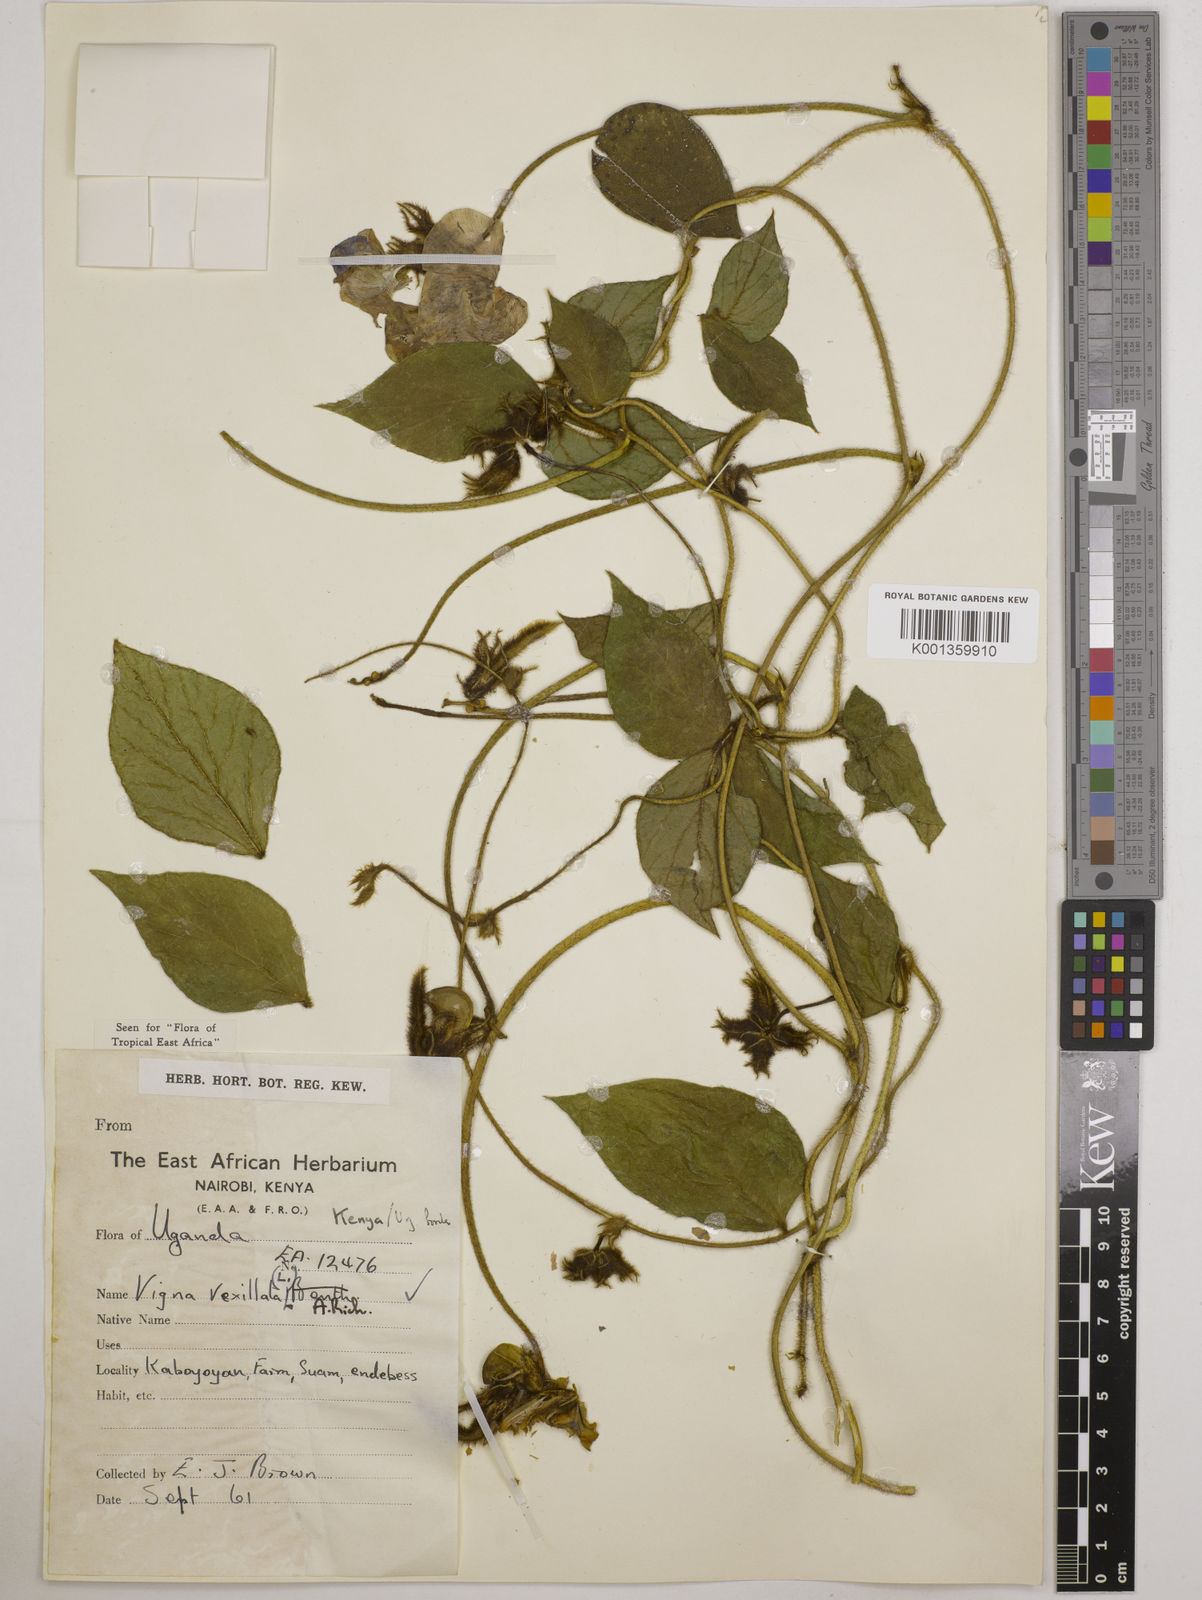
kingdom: Plantae
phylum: Tracheophyta
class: Magnoliopsida
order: Fabales
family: Fabaceae
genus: Vigna
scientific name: Vigna vexillata
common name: Zombi pea
